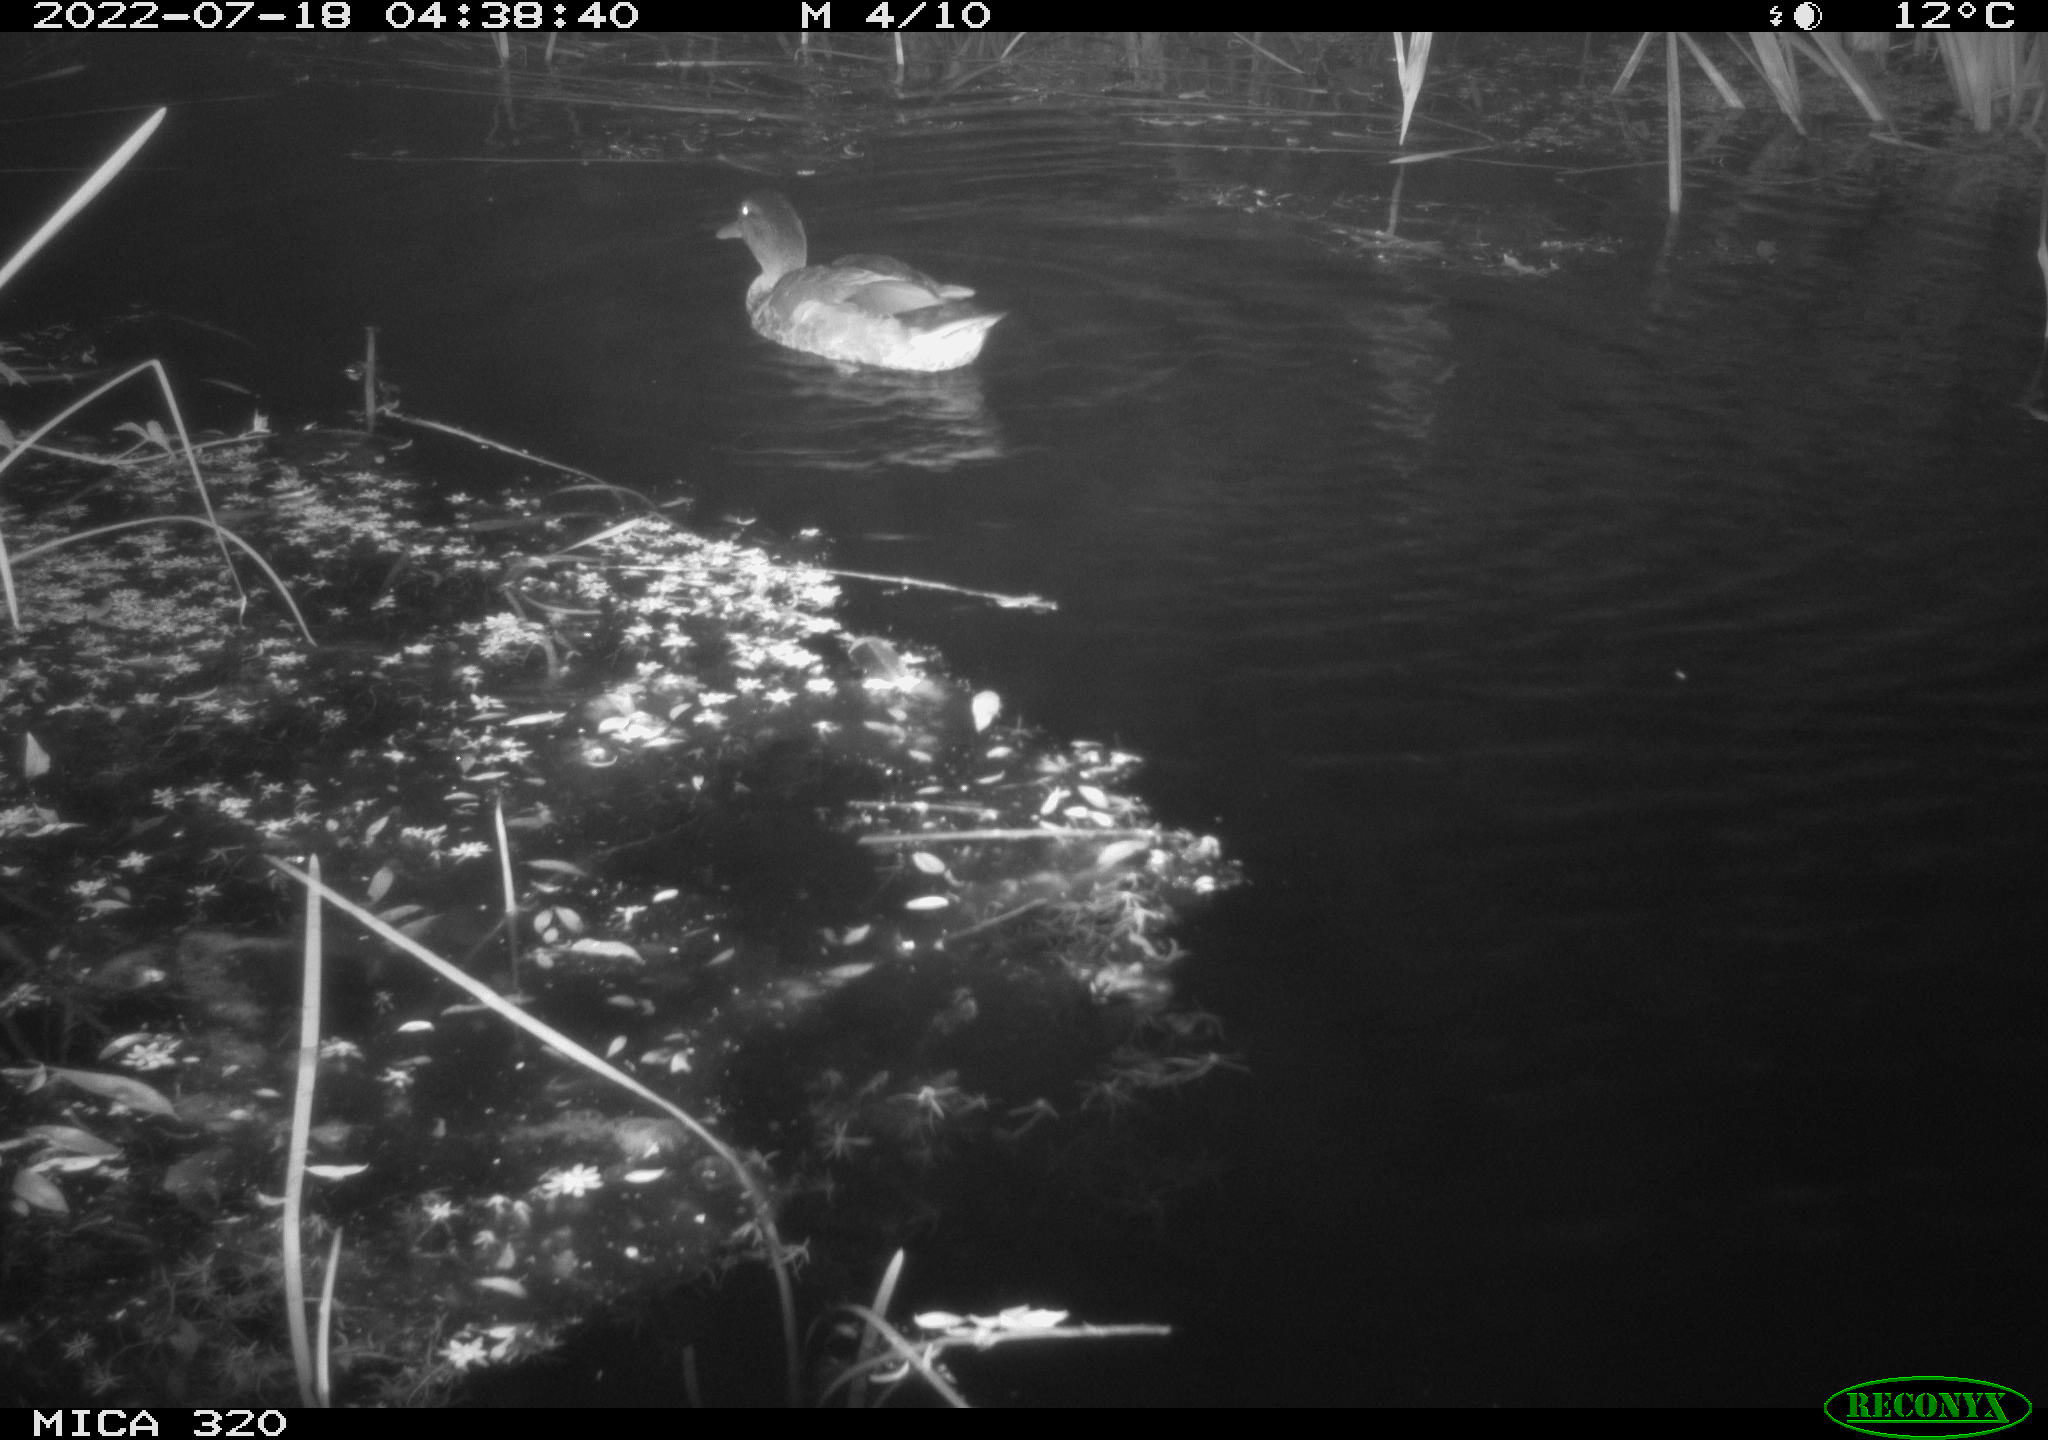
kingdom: Animalia
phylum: Chordata
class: Aves
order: Anseriformes
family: Anatidae
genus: Mareca
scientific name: Mareca strepera
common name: Gadwall
